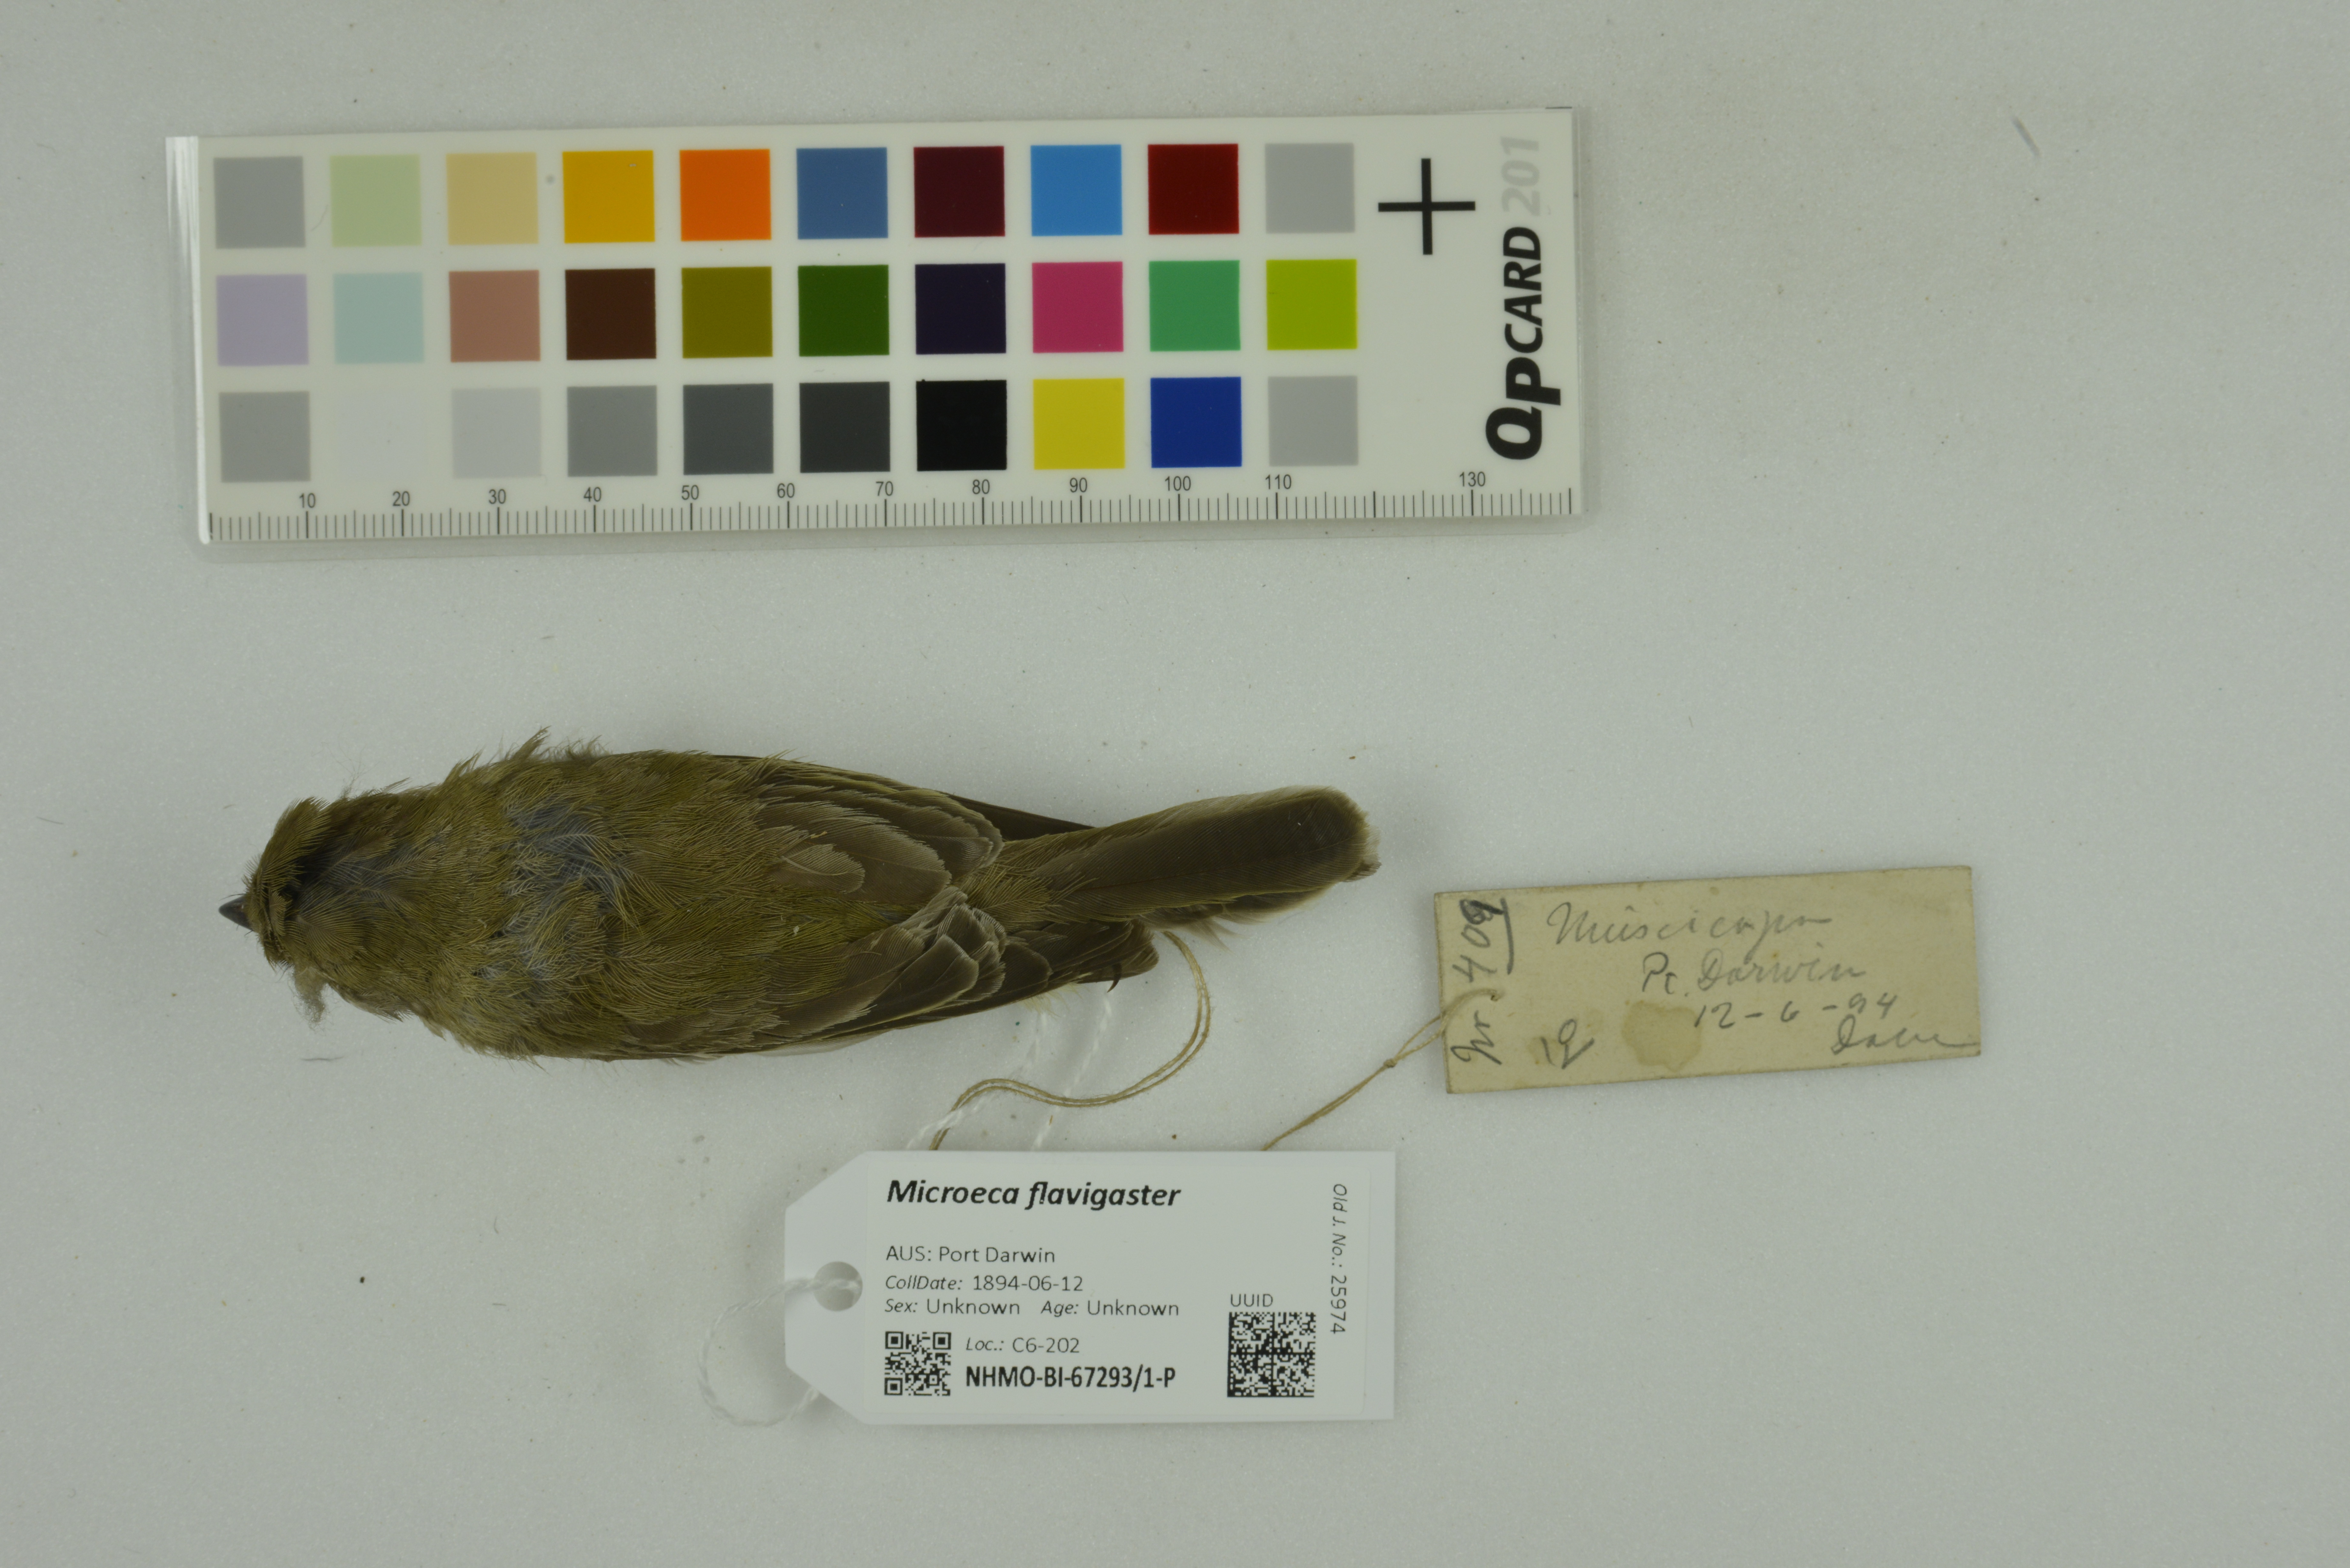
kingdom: Animalia
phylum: Chordata
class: Aves
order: Passeriformes
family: Petroicidae
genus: Microeca
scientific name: Microeca flavigaster
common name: Lemon-bellied flyrobin
